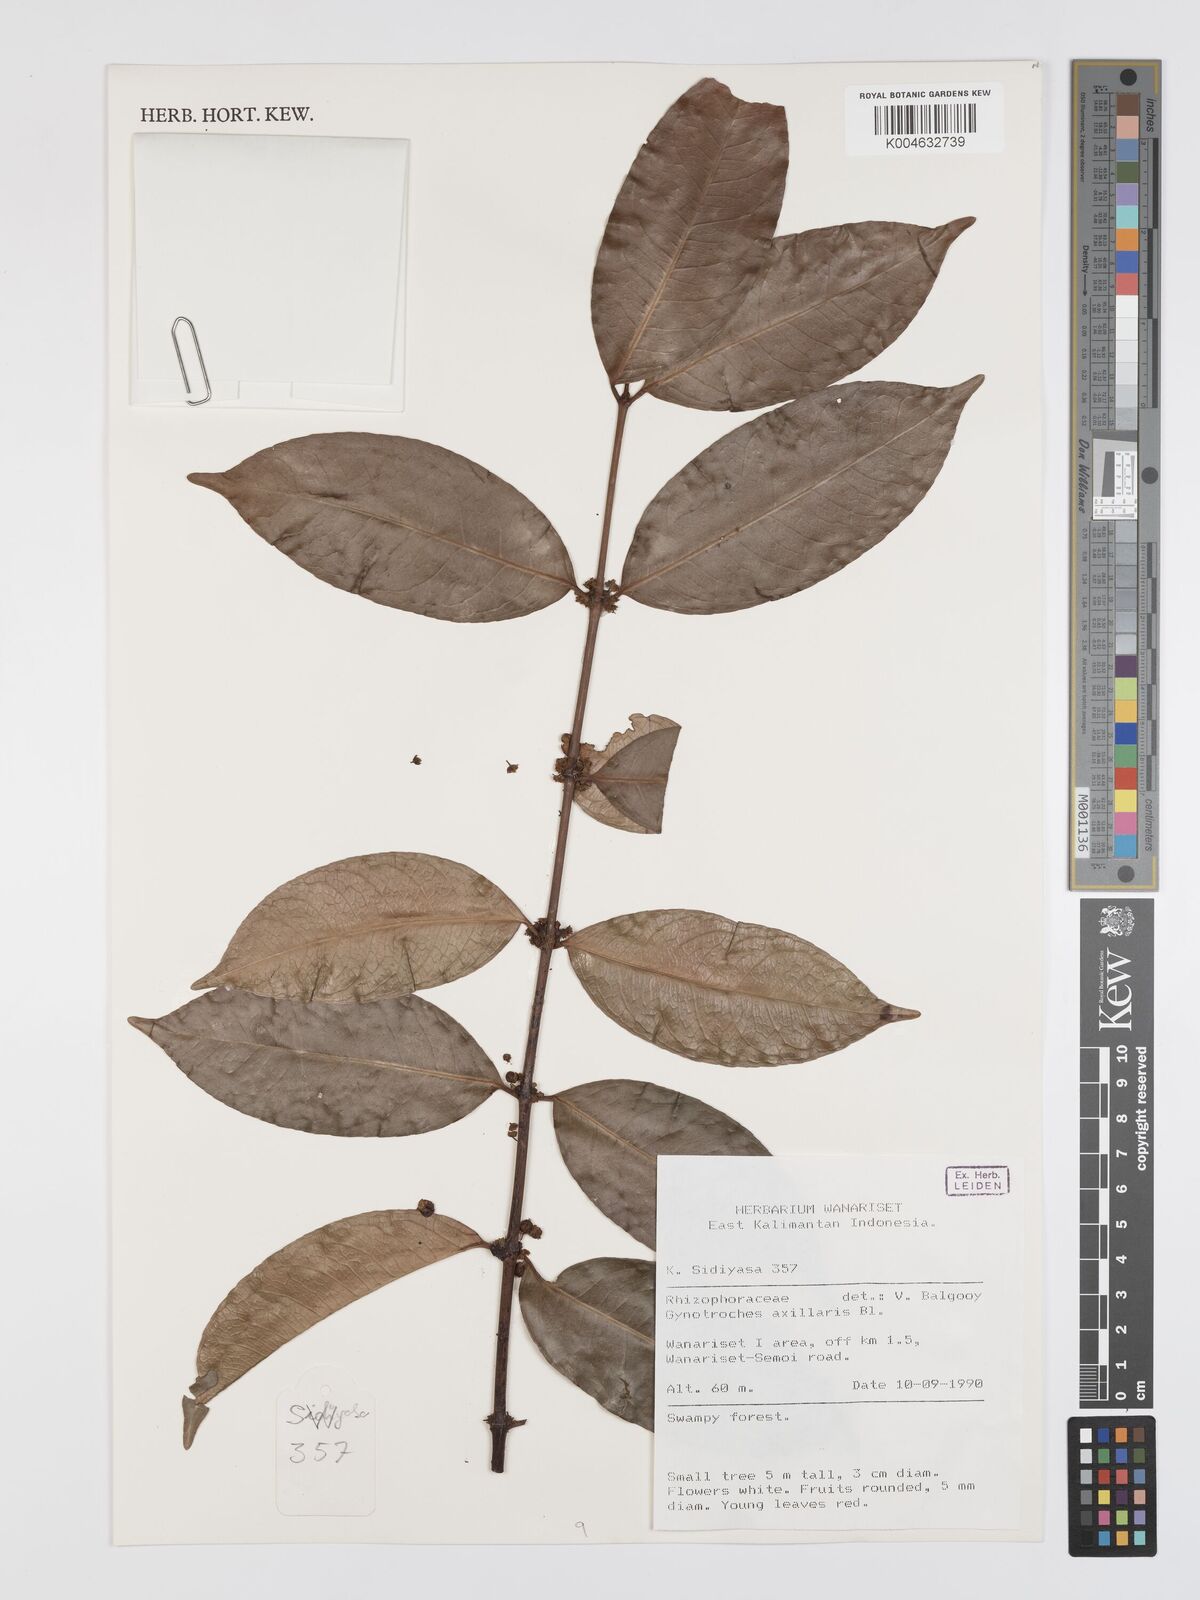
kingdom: Plantae
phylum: Tracheophyta
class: Magnoliopsida
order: Malpighiales
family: Rhizophoraceae
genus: Gynotroches
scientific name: Gynotroches axillaris
